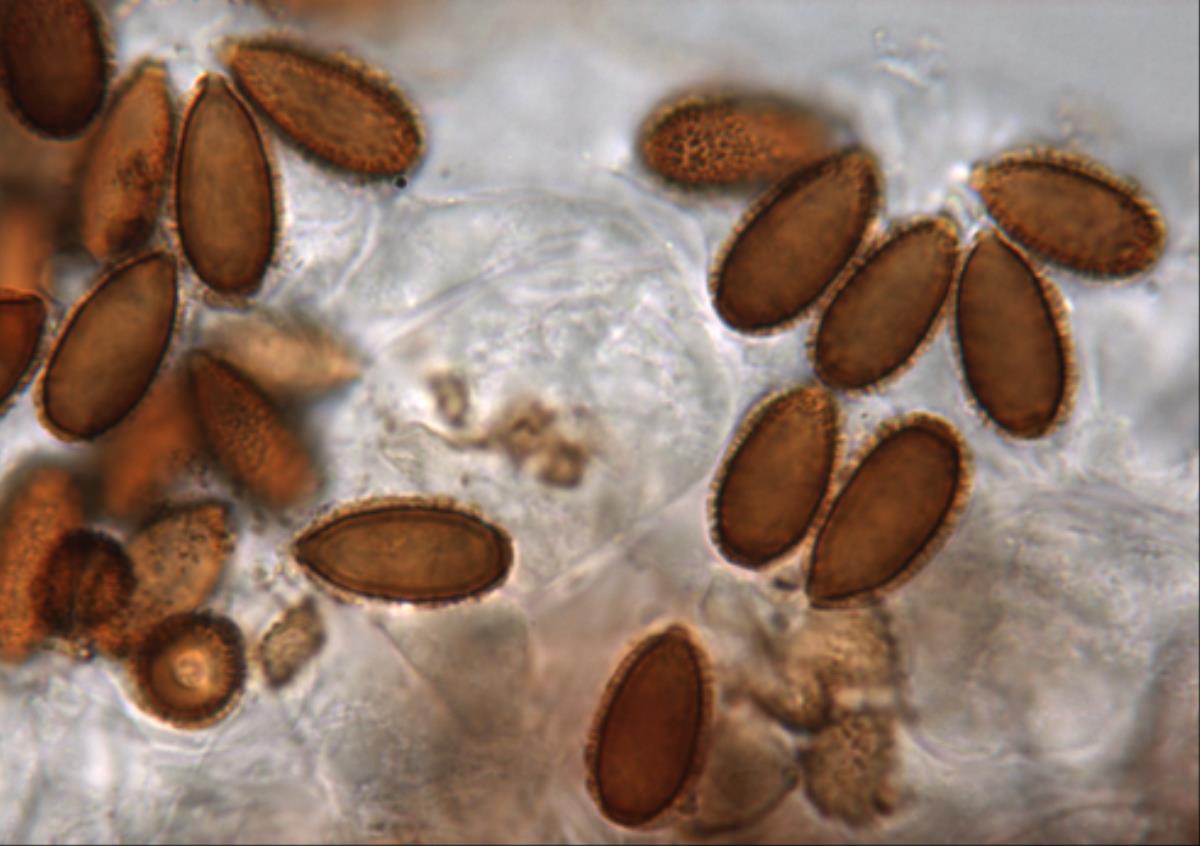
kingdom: Fungi
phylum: Basidiomycota
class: Agaricomycetes
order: Agaricales
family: Cortinariaceae
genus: Cortinarius
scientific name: Cortinarius anisodorus
